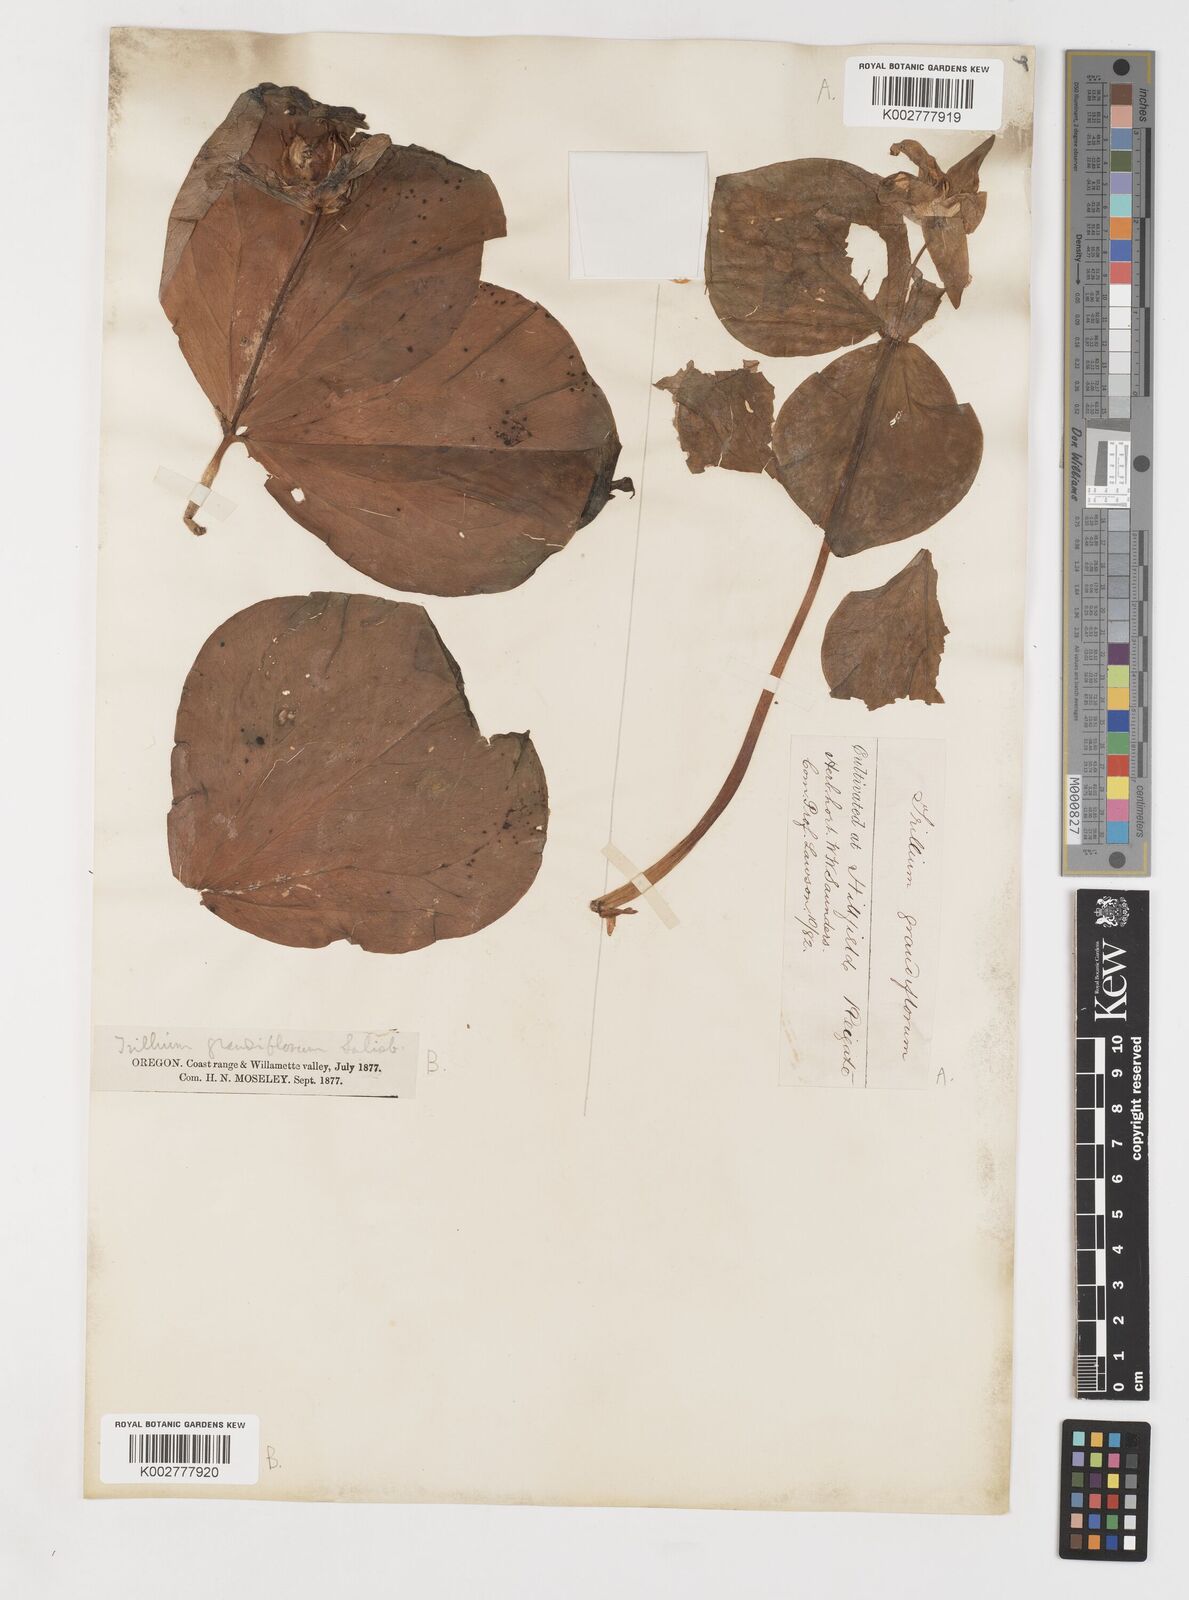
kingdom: Plantae
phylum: Tracheophyta
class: Liliopsida
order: Liliales
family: Melanthiaceae
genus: Trillium
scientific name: Trillium grandiflorum
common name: Great white trillium
